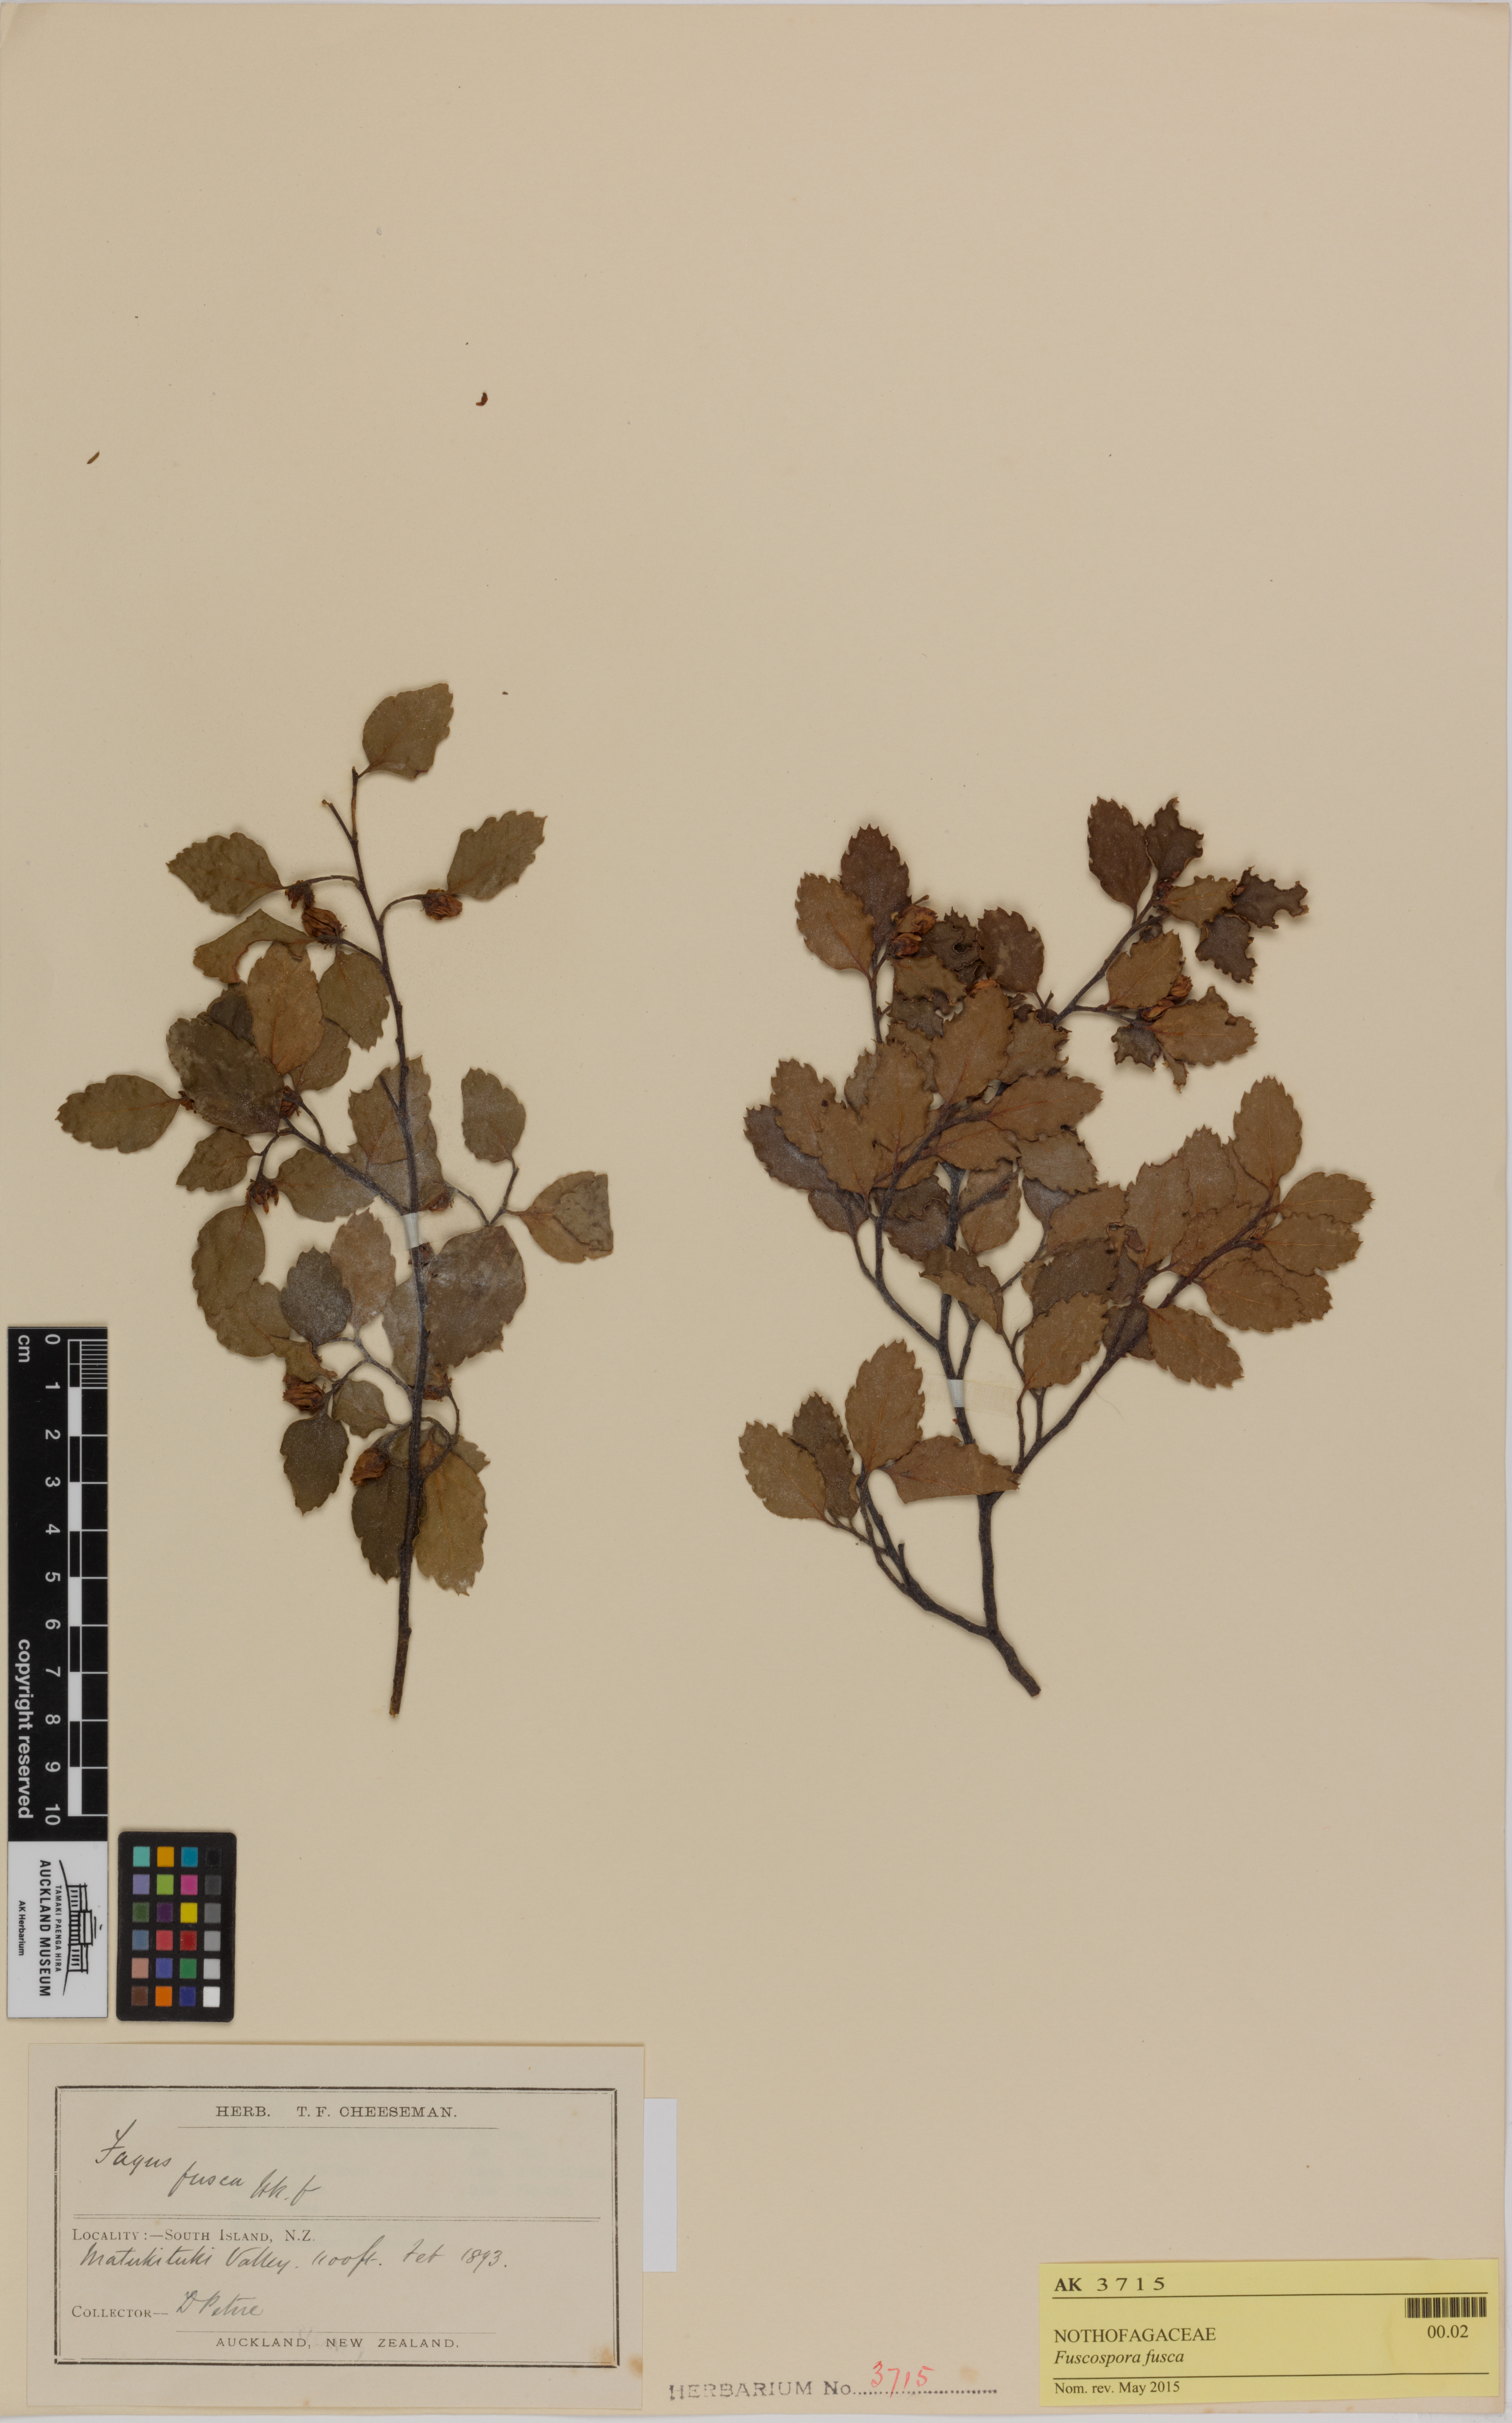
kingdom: Plantae
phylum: Tracheophyta
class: Magnoliopsida
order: Fagales
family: Nothofagaceae
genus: Nothofagus
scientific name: Nothofagus fusca
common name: Red beech
